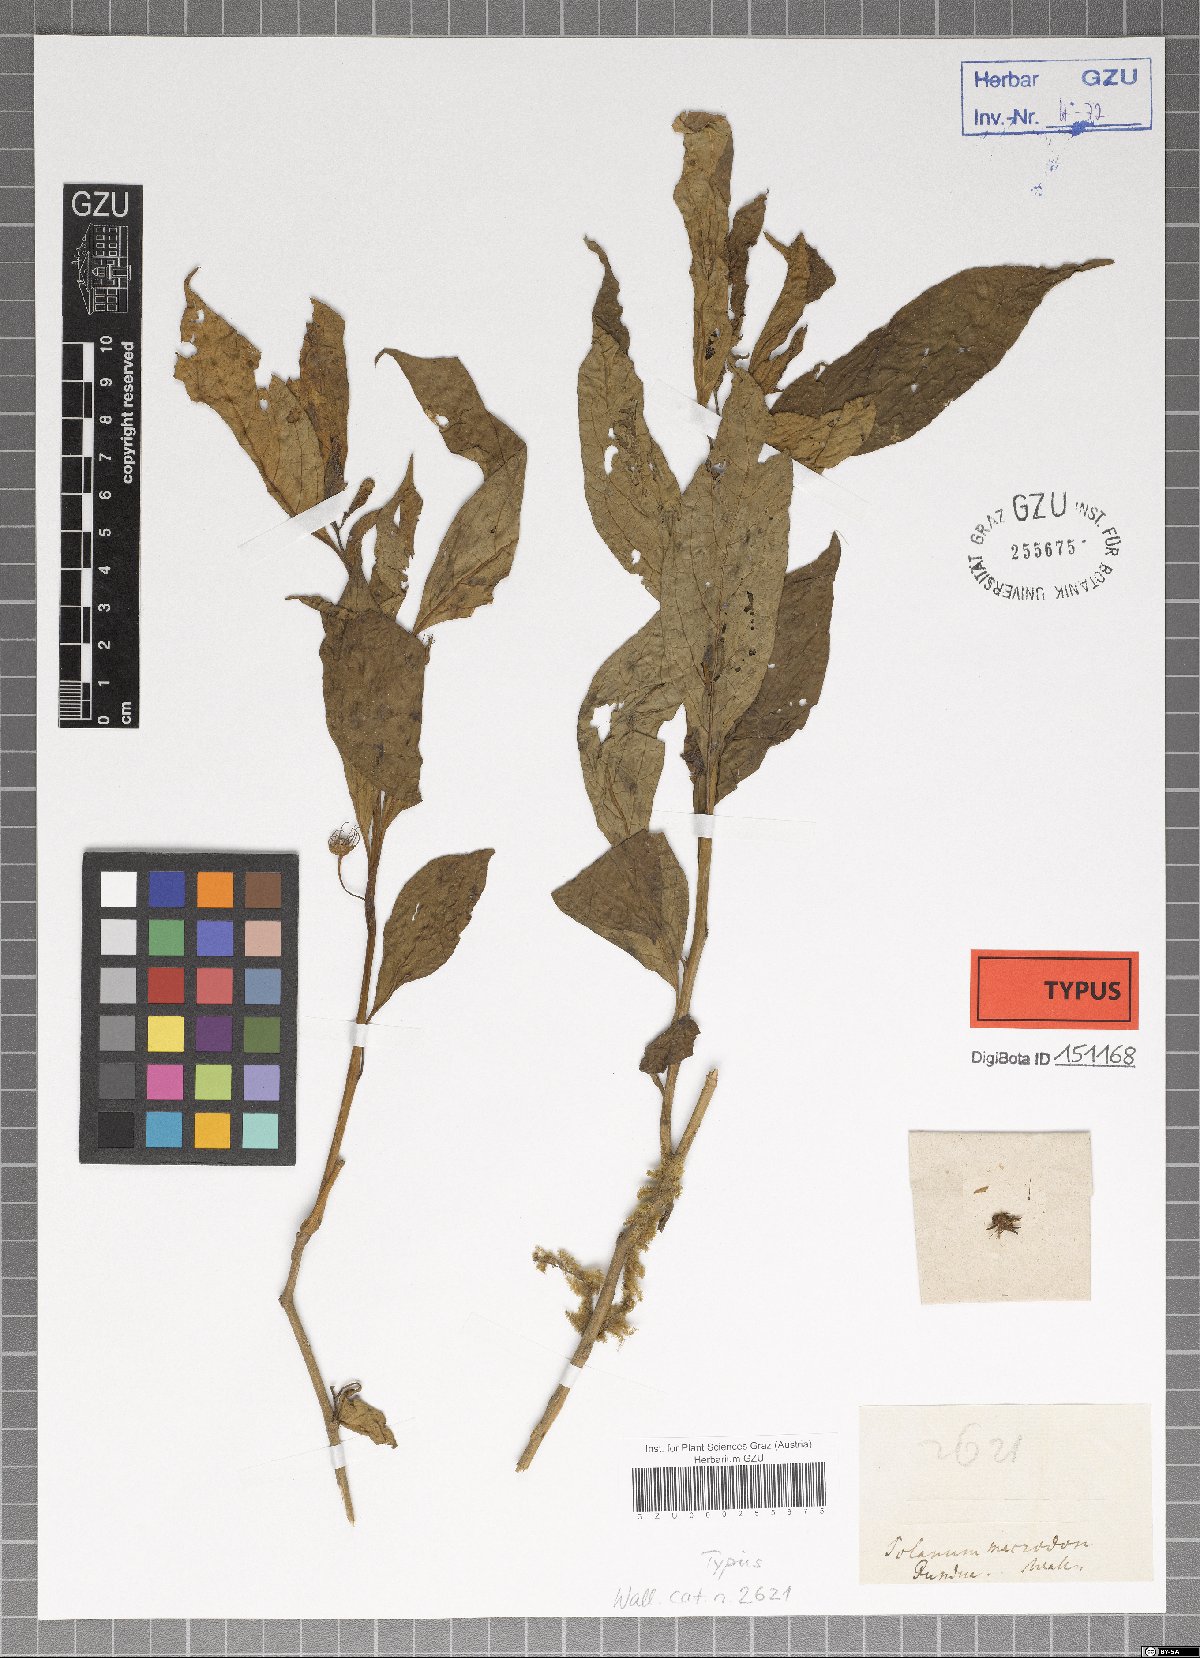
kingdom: Plantae
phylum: Tracheophyta
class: Magnoliopsida
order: Solanales
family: Solanaceae
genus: Lycianthes
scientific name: Lycianthes macrodon
